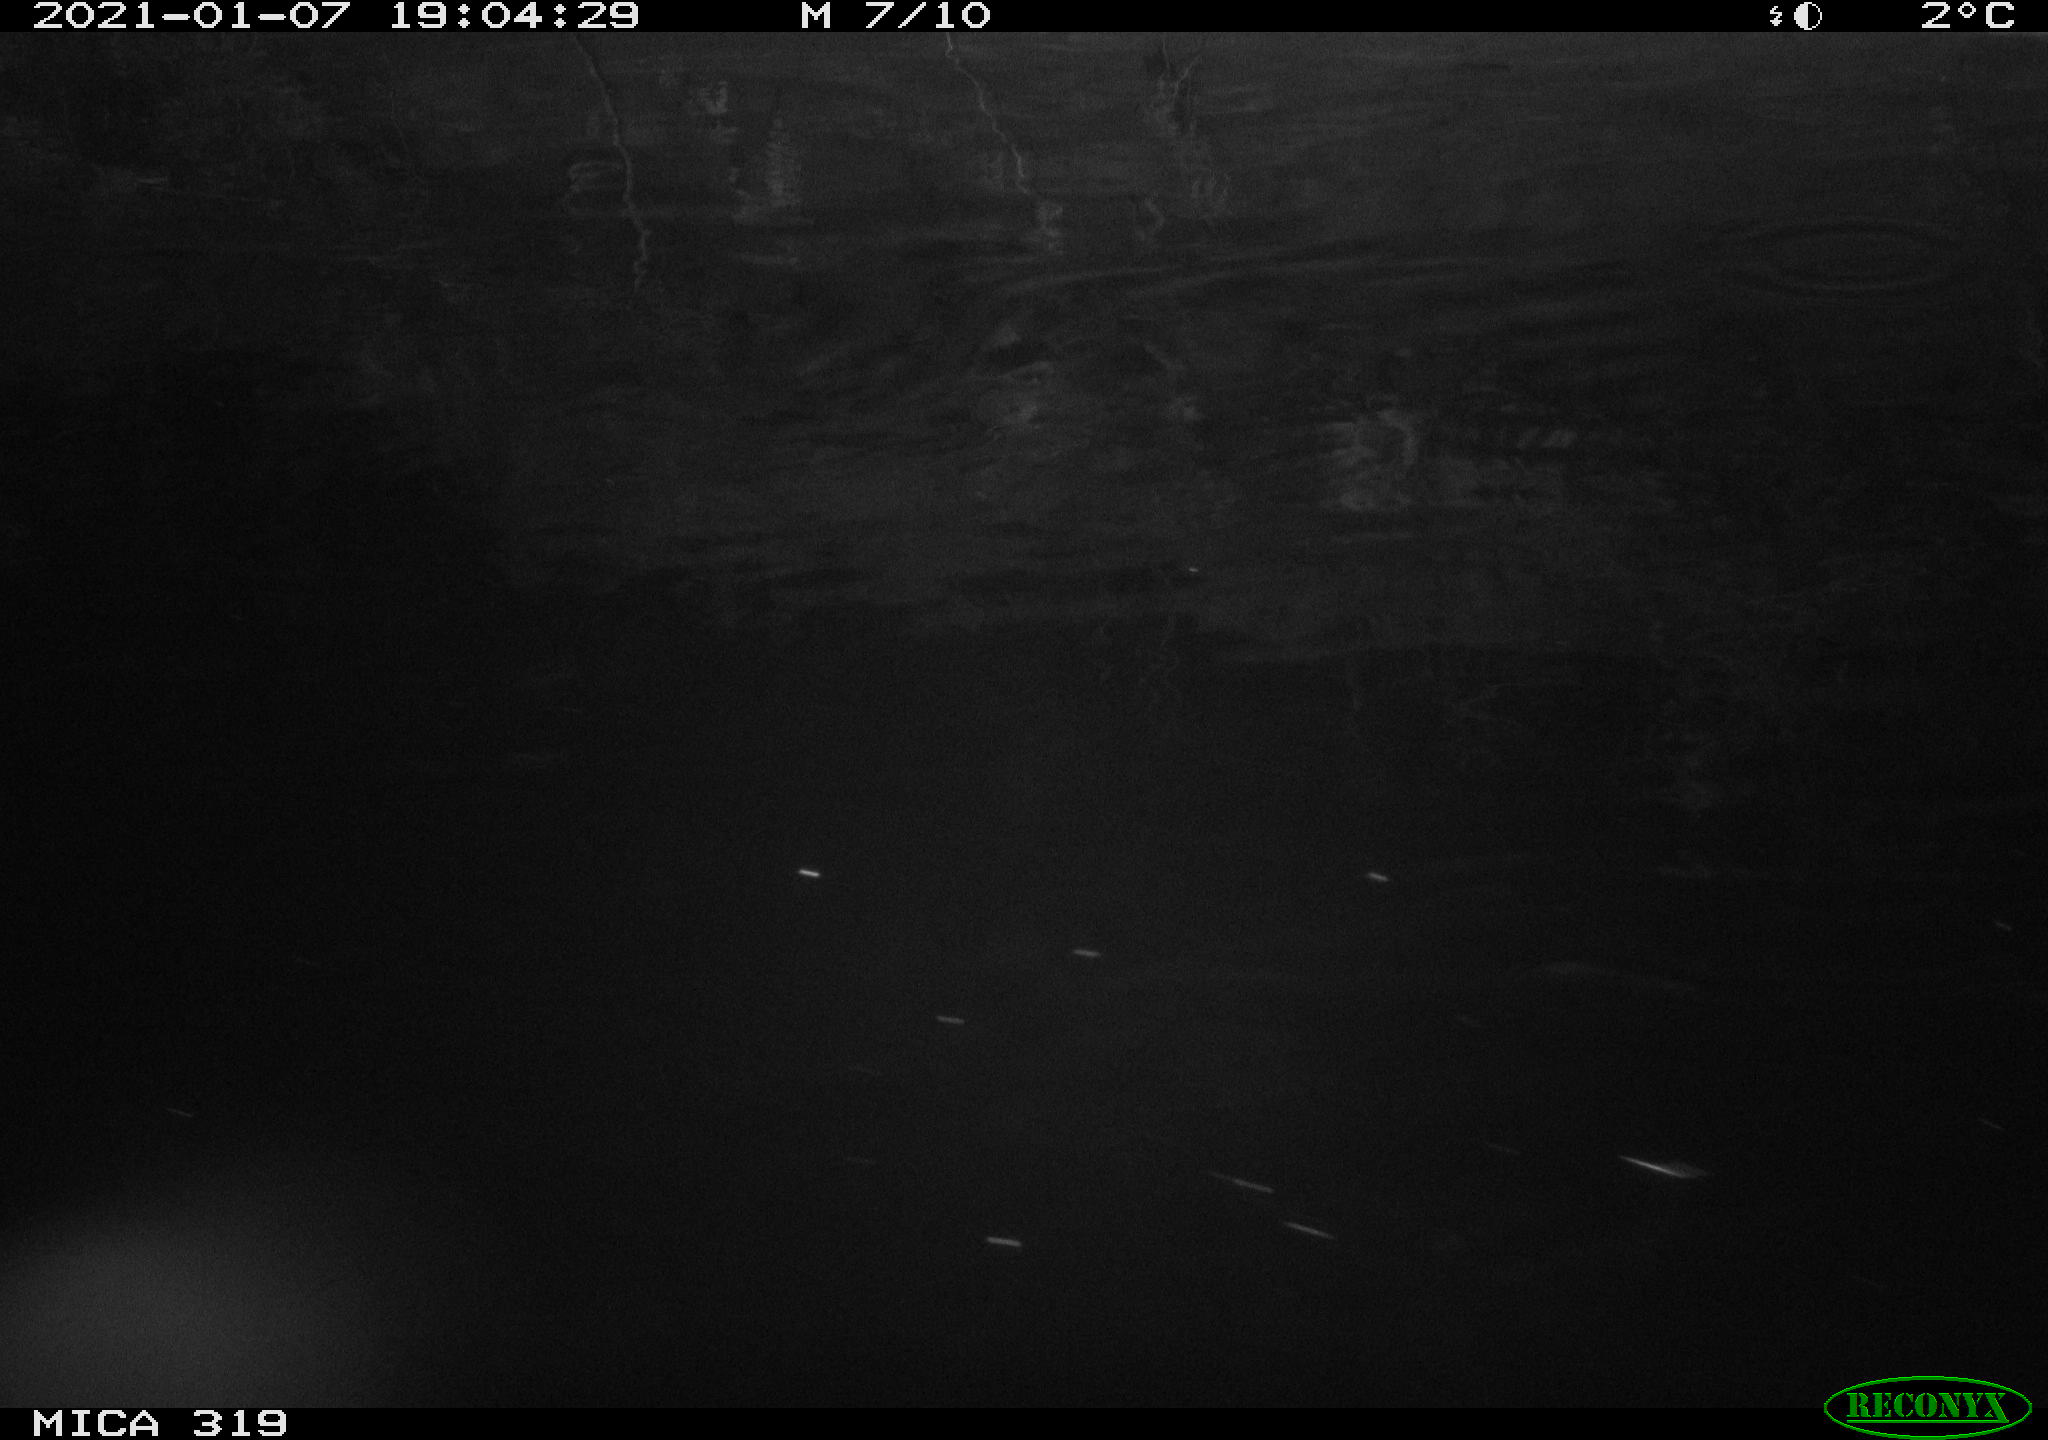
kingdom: Animalia
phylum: Chordata
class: Mammalia
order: Rodentia
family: Muridae
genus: Rattus
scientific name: Rattus norvegicus
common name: Brown rat
